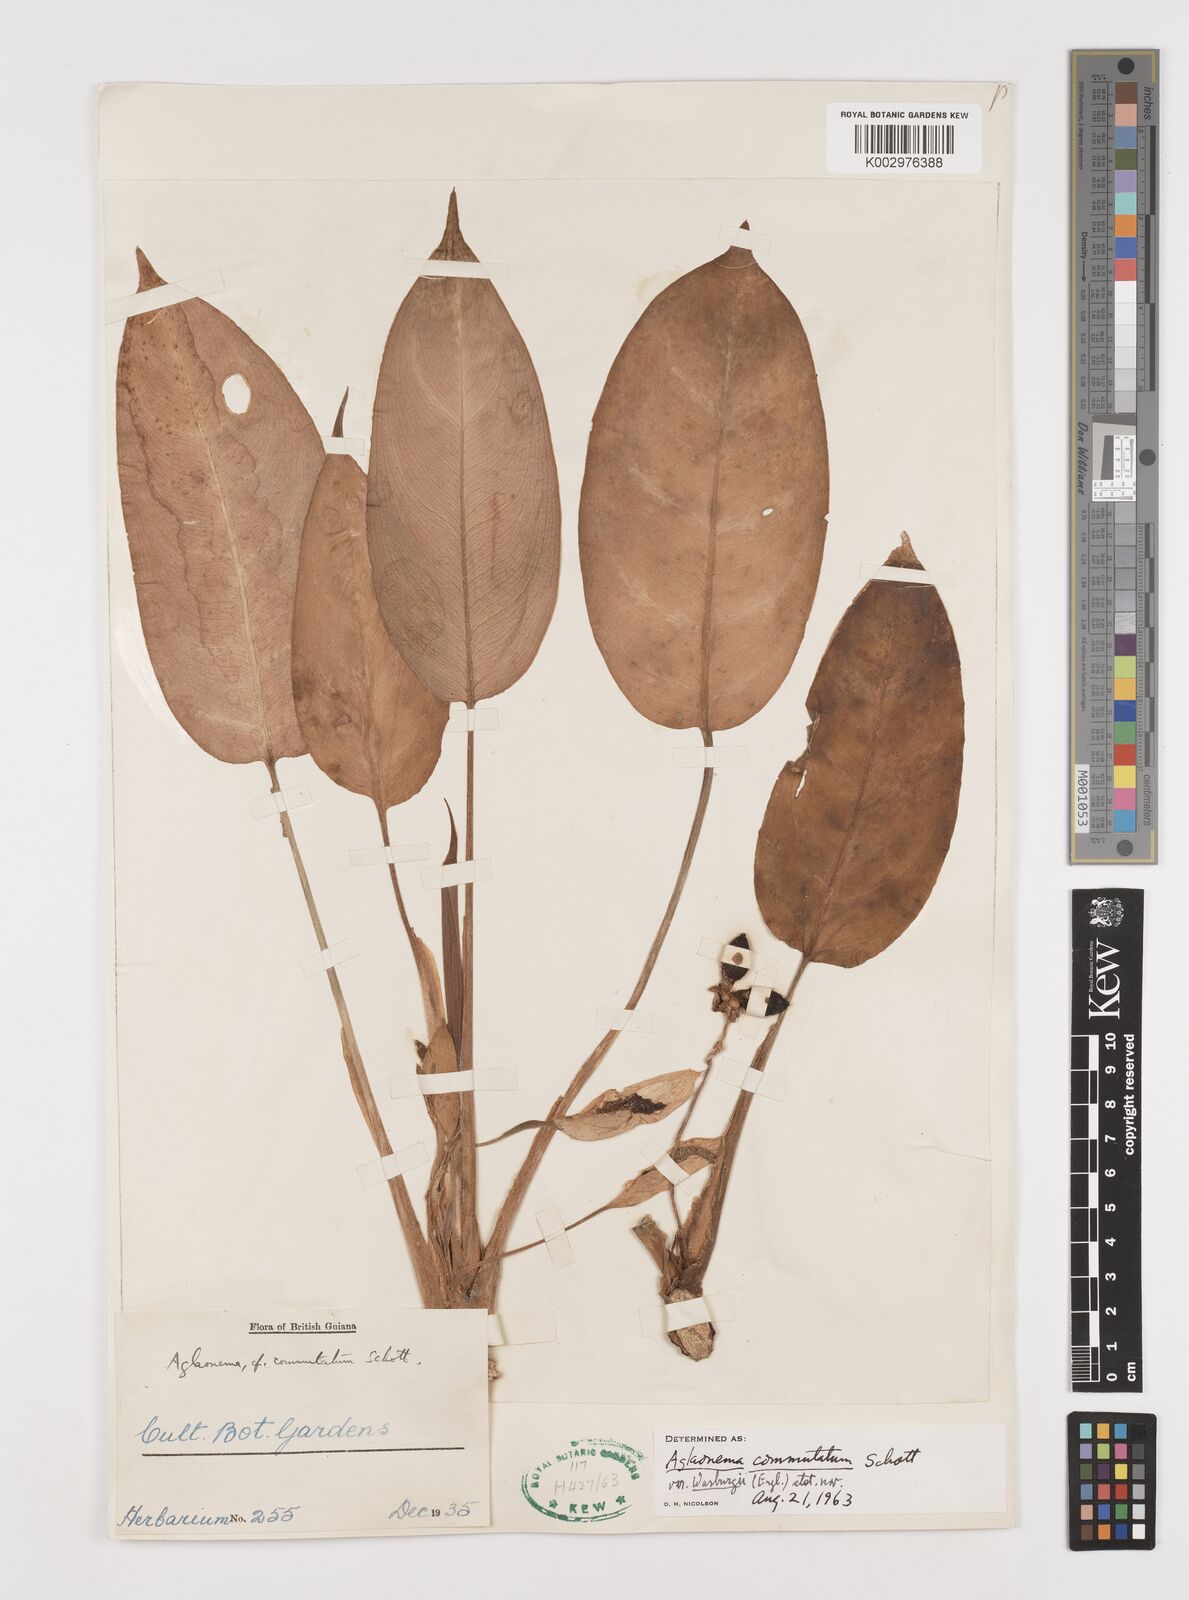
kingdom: Plantae
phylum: Tracheophyta
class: Liliopsida
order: Alismatales
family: Araceae
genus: Aglaonema
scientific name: Aglaonema commutatum
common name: Philippine evergreen
